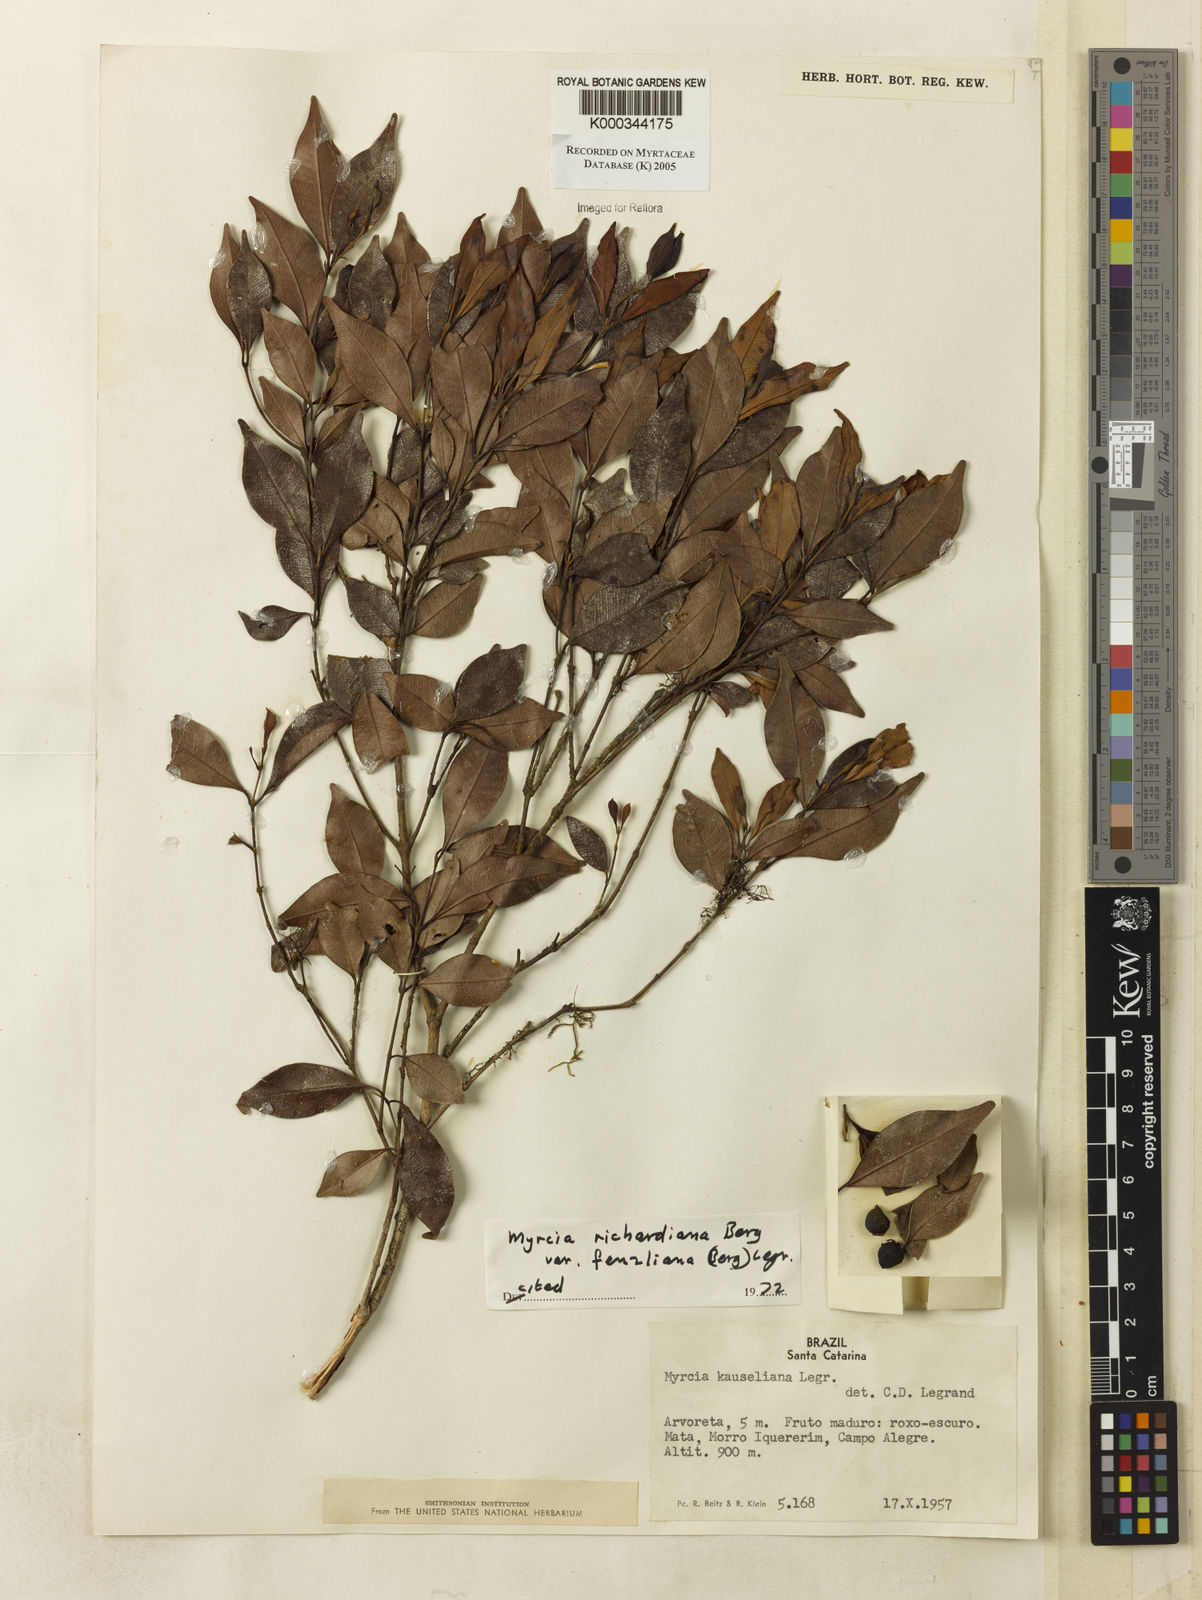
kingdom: Plantae
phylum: Tracheophyta
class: Magnoliopsida
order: Myrtales
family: Myrtaceae
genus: Myrcia
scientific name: Myrcia richardiana
